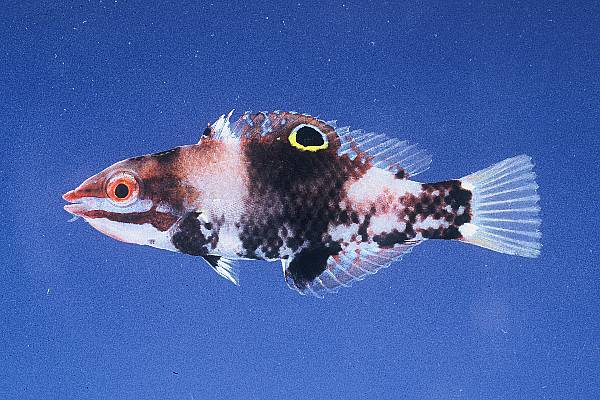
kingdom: Animalia
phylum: Chordata
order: Perciformes
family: Labridae
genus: Halichoeres
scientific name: Halichoeres hortulanus
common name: Checkerboard wrasse
